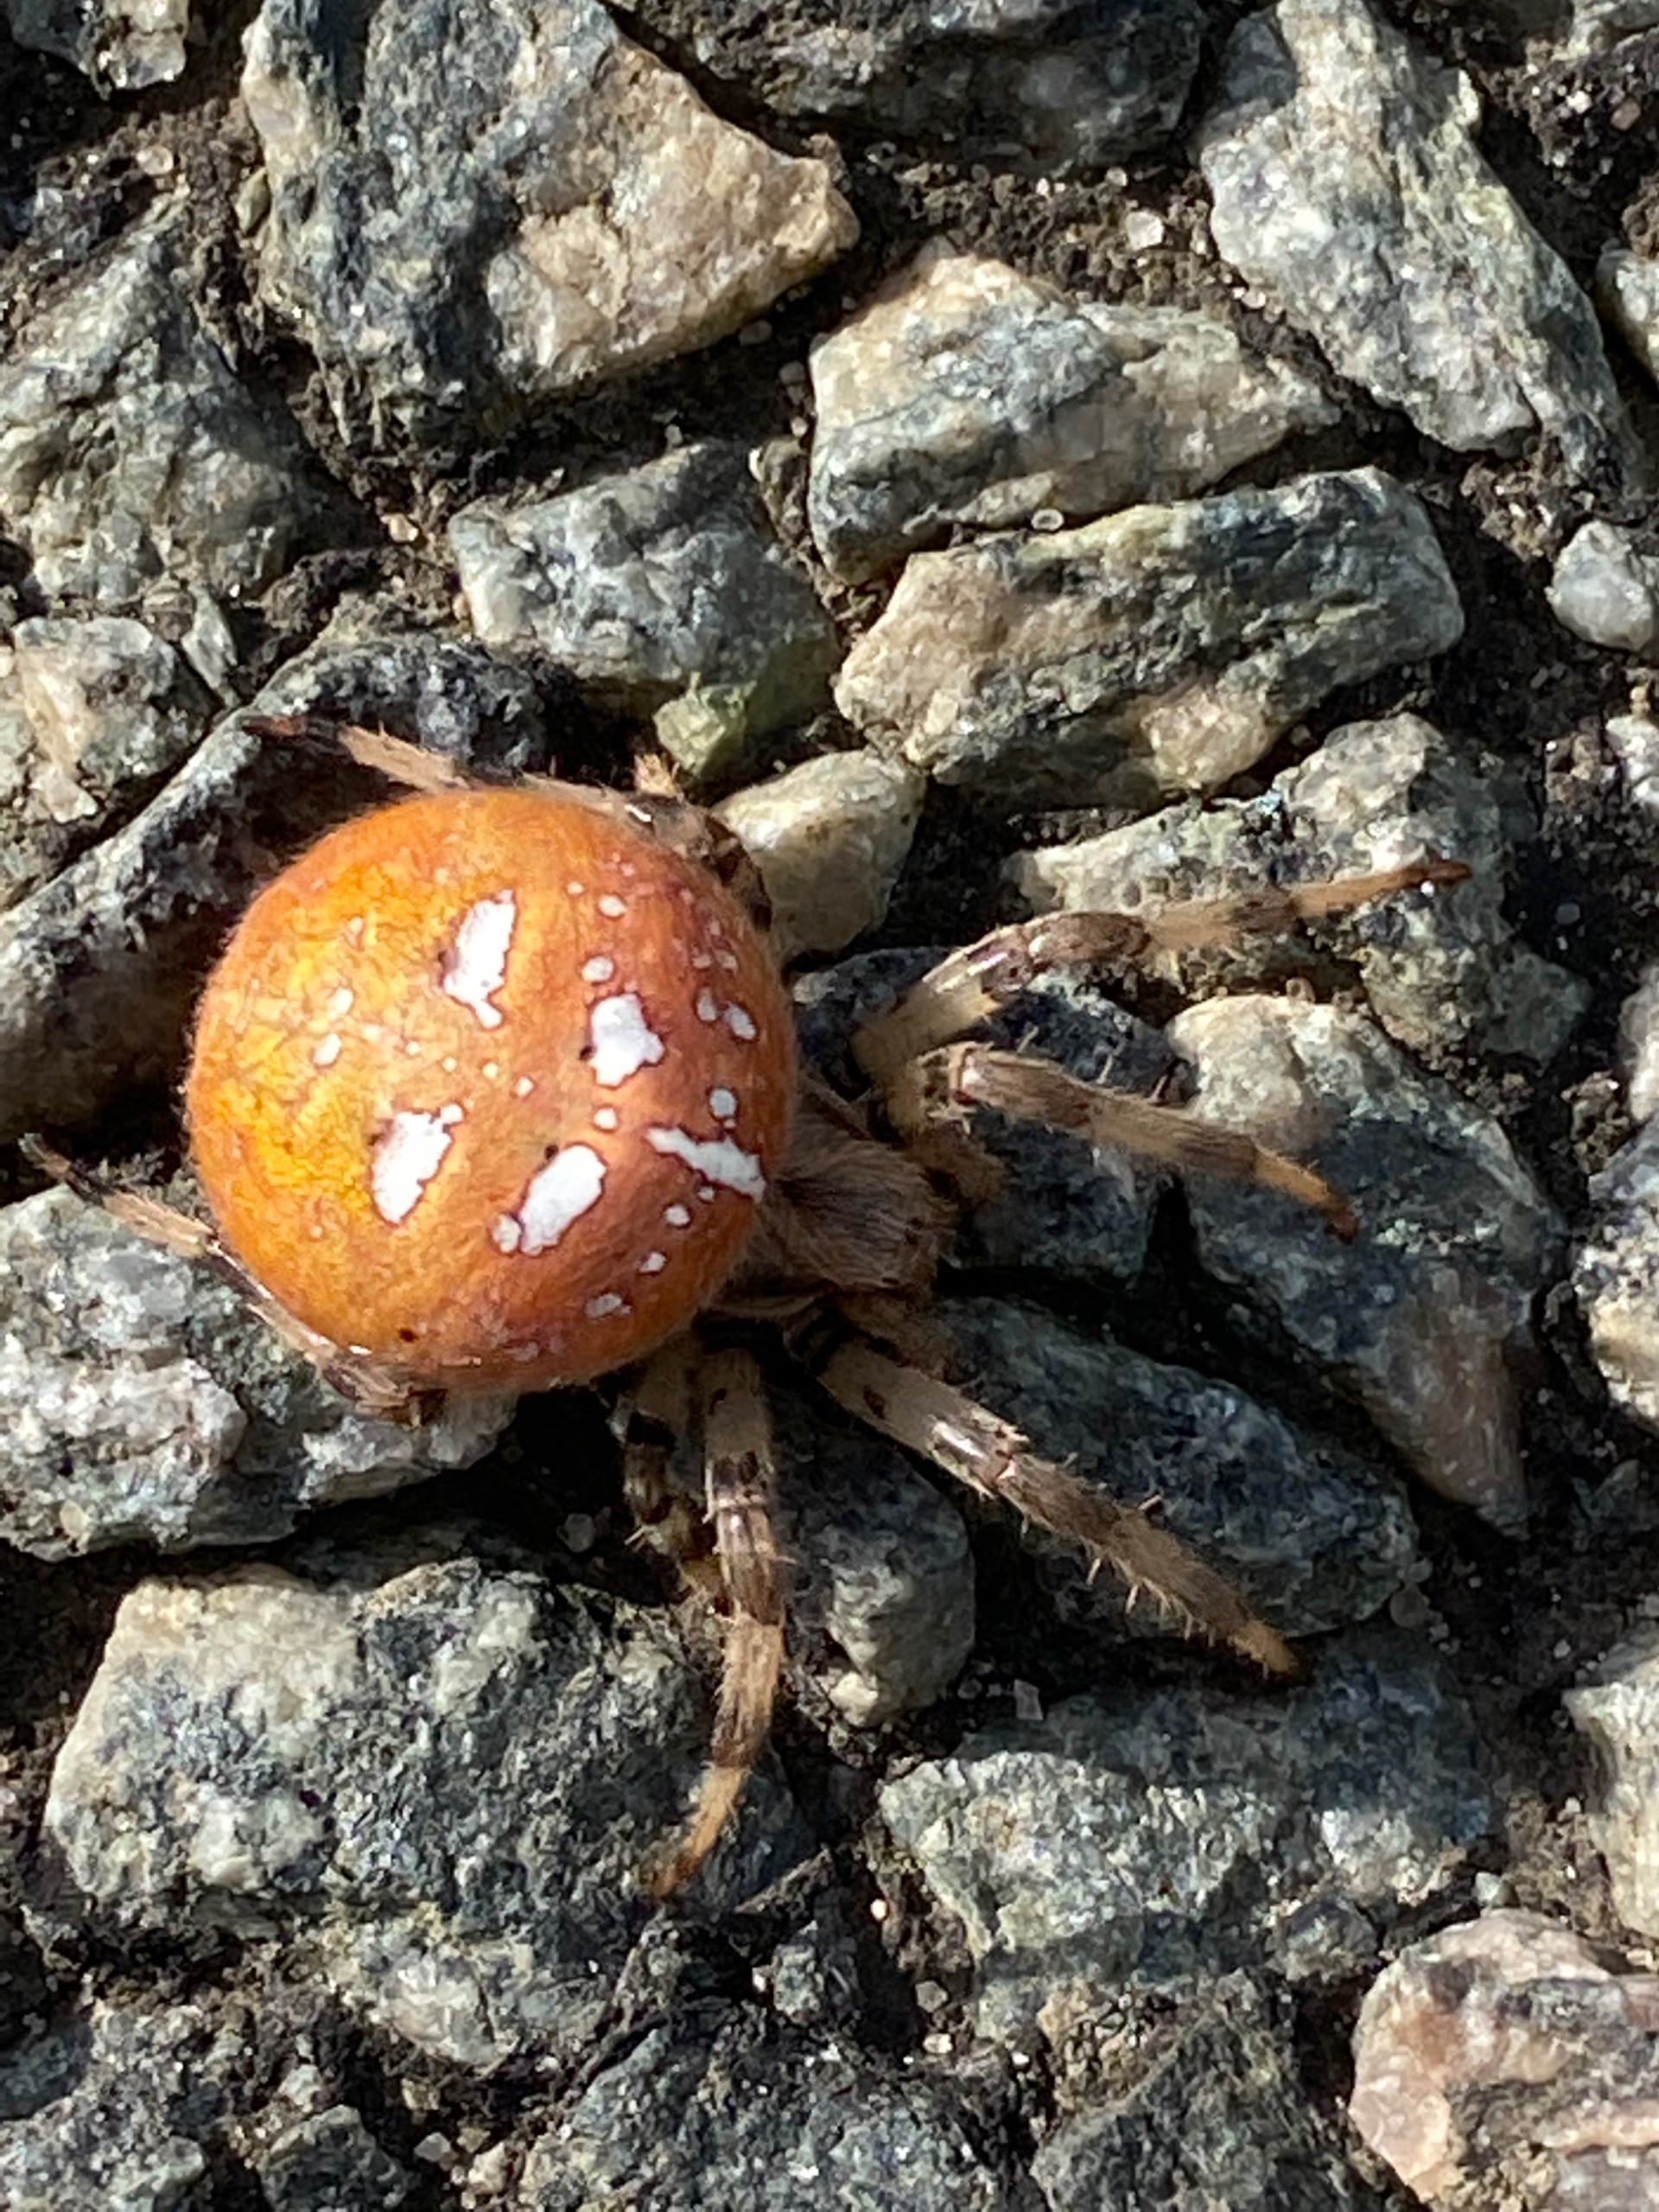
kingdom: Animalia
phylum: Arthropoda
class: Arachnida
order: Araneae
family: Araneidae
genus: Araneus
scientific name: Araneus quadratus
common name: Kvadratedderkop
